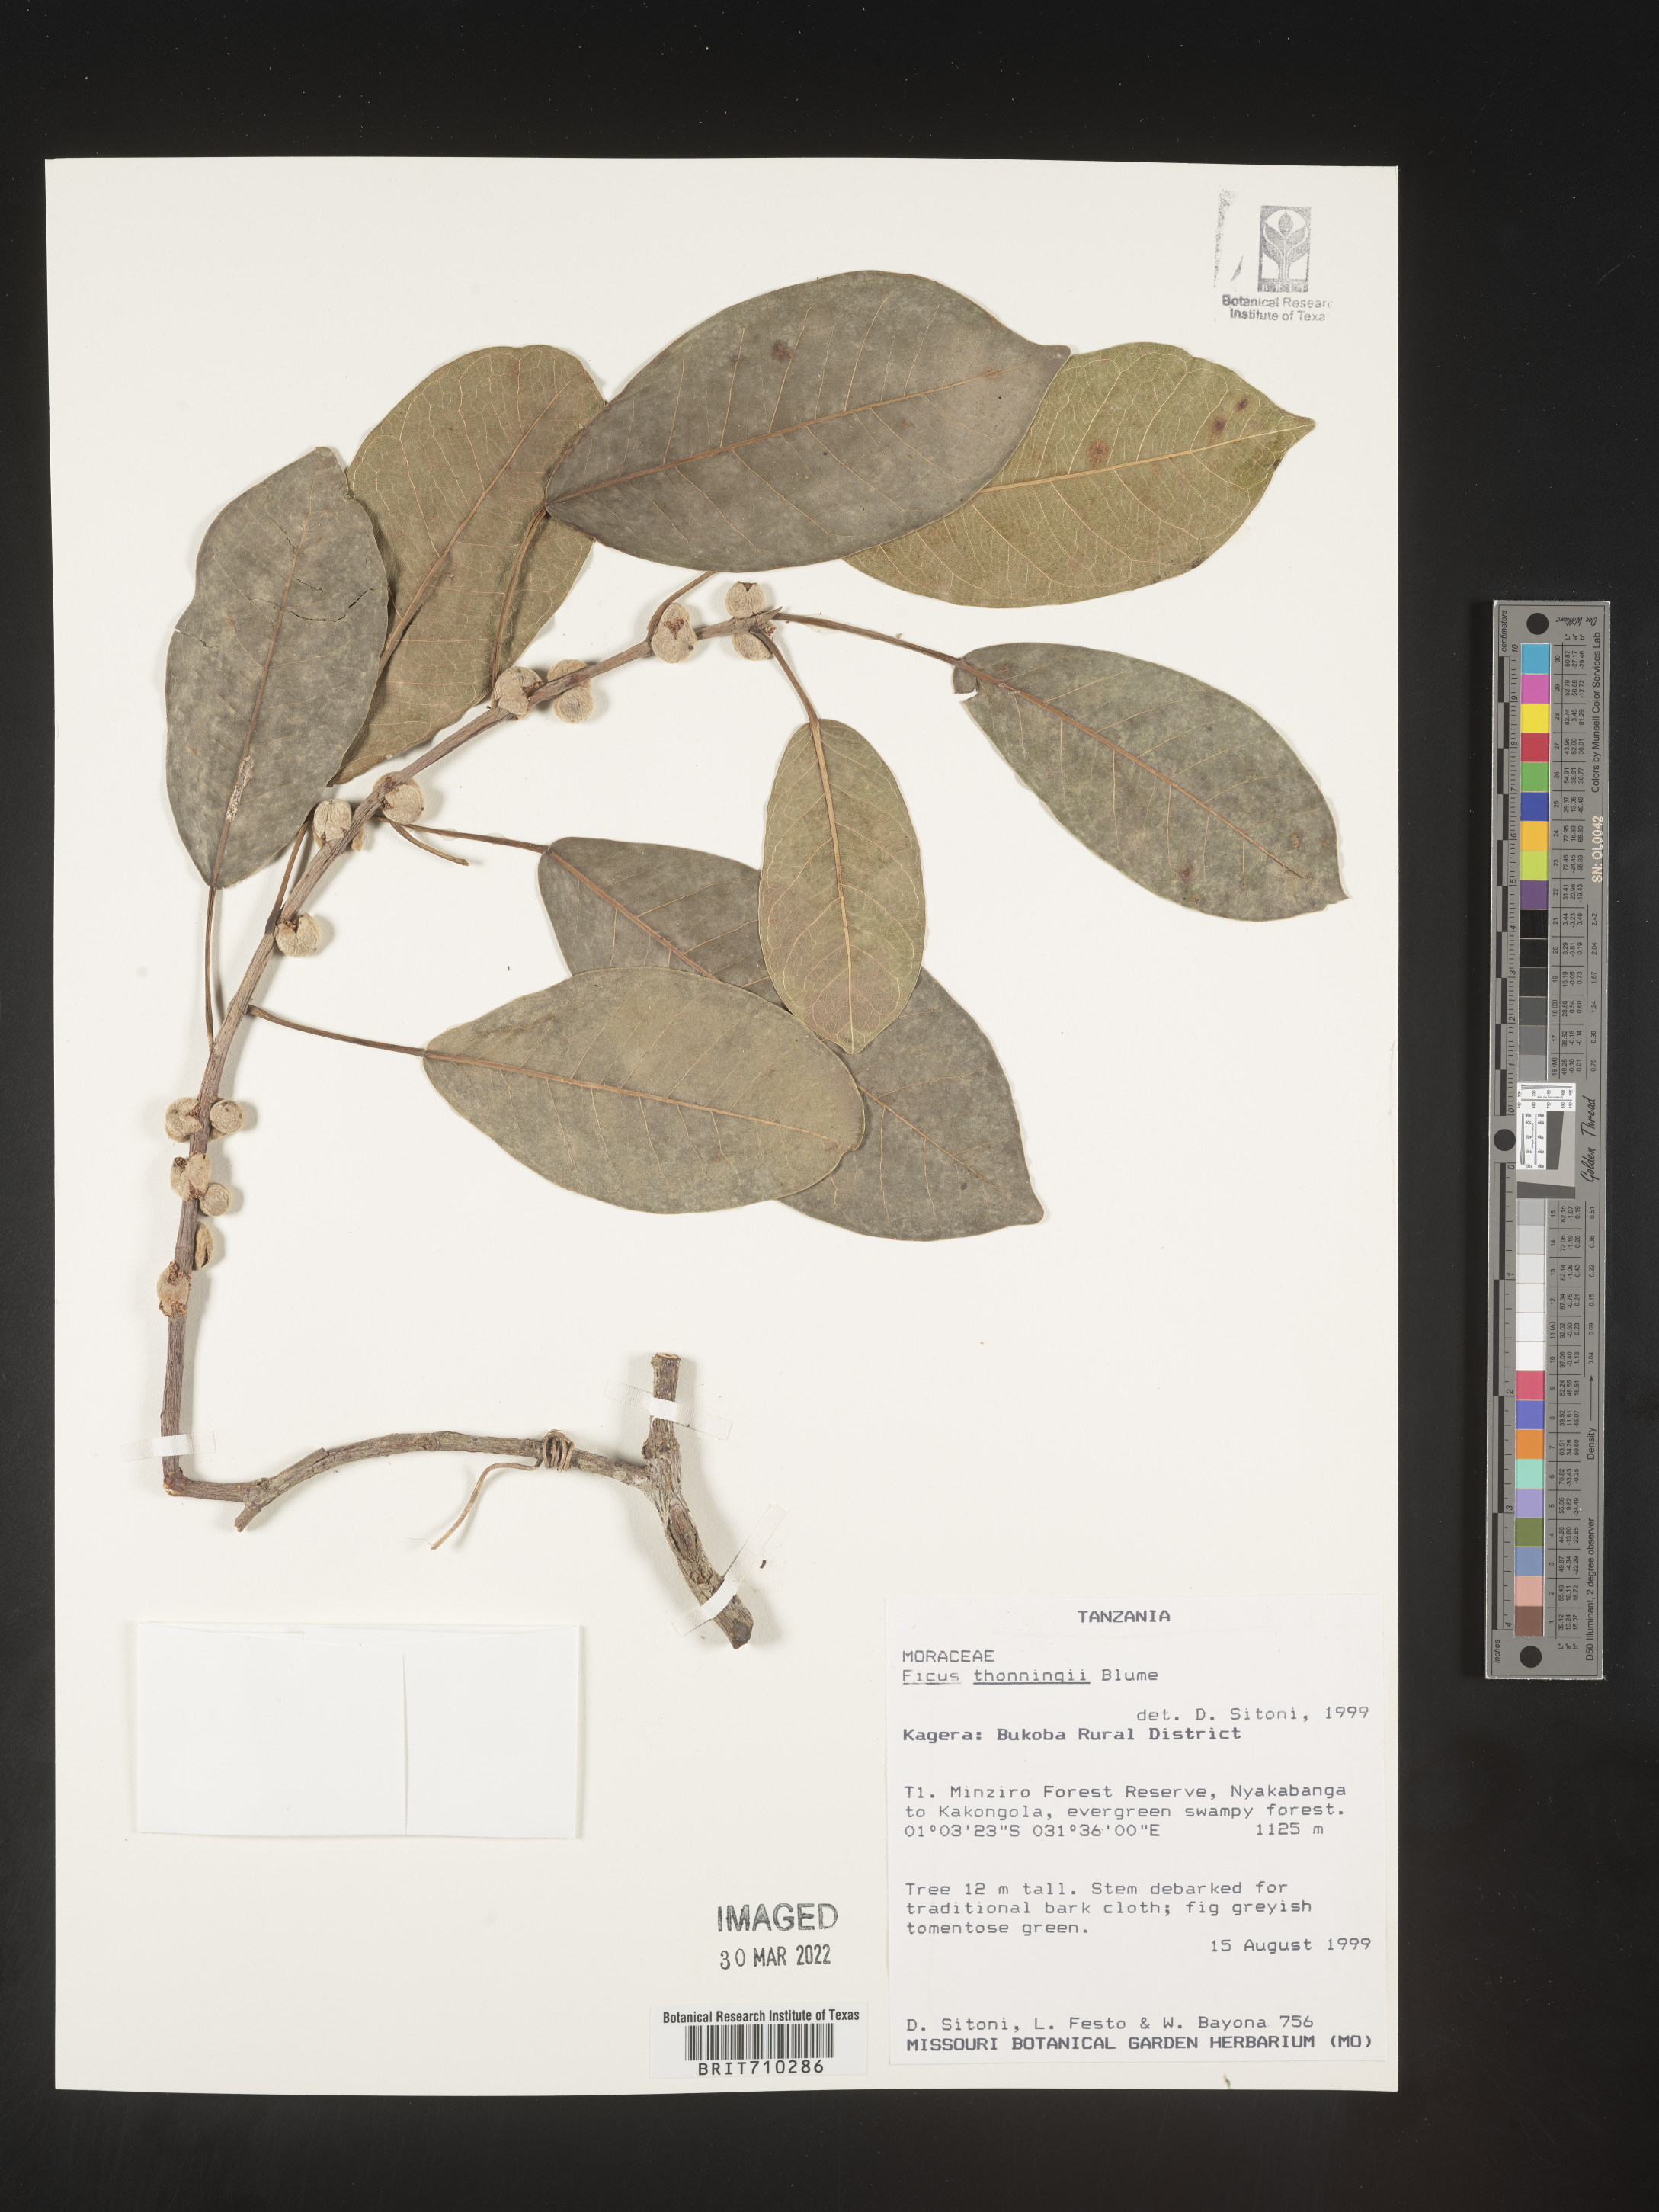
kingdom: Plantae
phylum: Tracheophyta
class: Magnoliopsida
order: Rosales
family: Moraceae
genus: Ficus
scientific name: Ficus
